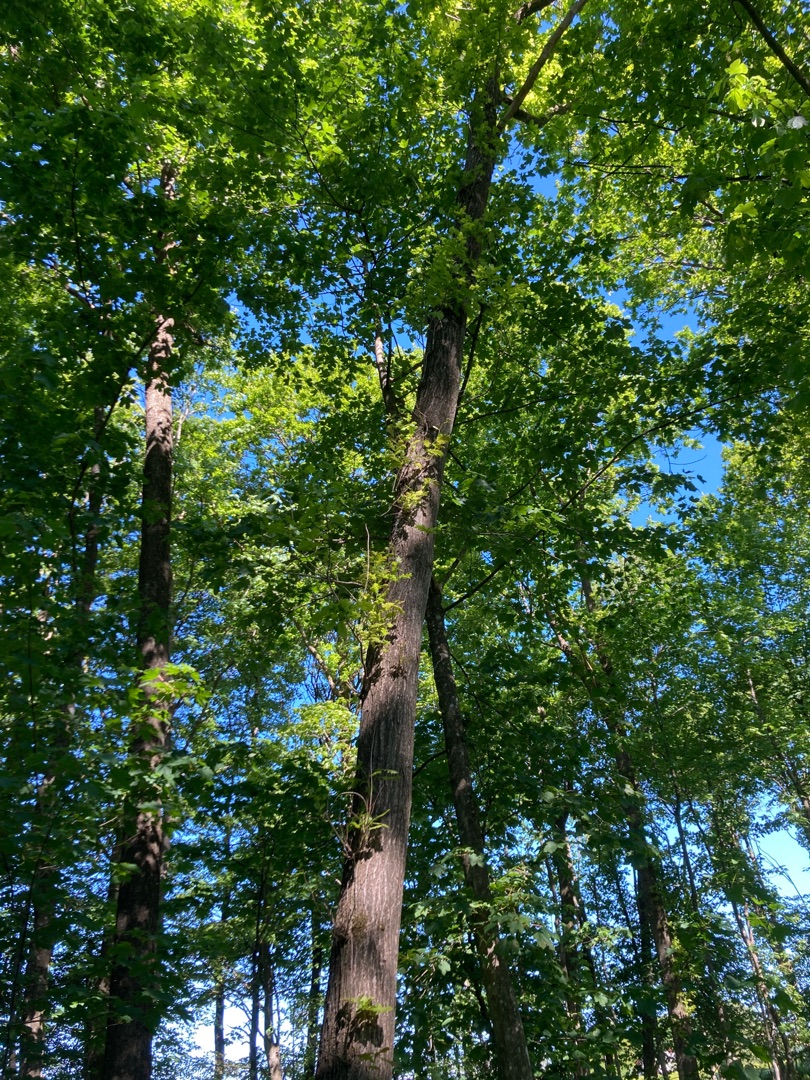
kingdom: Plantae
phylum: Tracheophyta
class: Magnoliopsida
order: Fagales
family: Fagaceae
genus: Quercus
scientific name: Quercus robur
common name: Stilk-eg/almindelig eg
